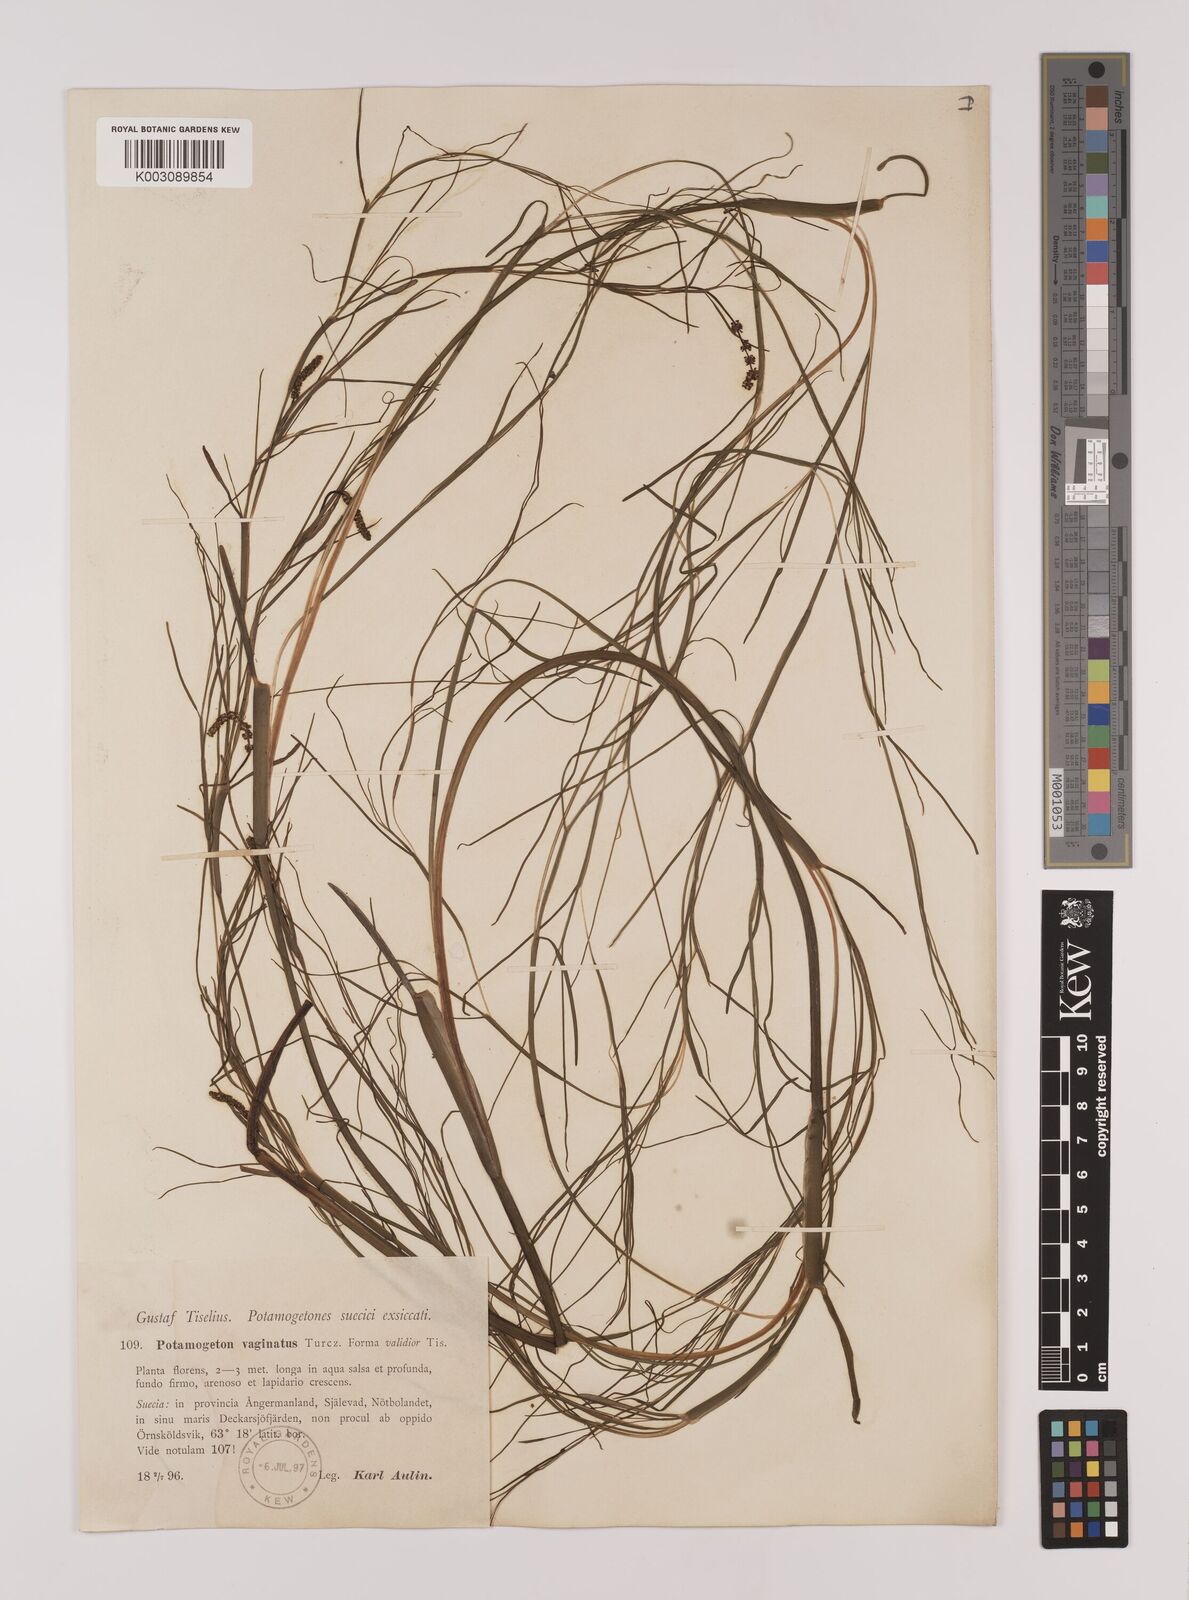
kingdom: Plantae
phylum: Tracheophyta
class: Liliopsida
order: Alismatales
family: Potamogetonaceae
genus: Stuckenia
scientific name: Stuckenia pectinata
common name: Sago pondweed
